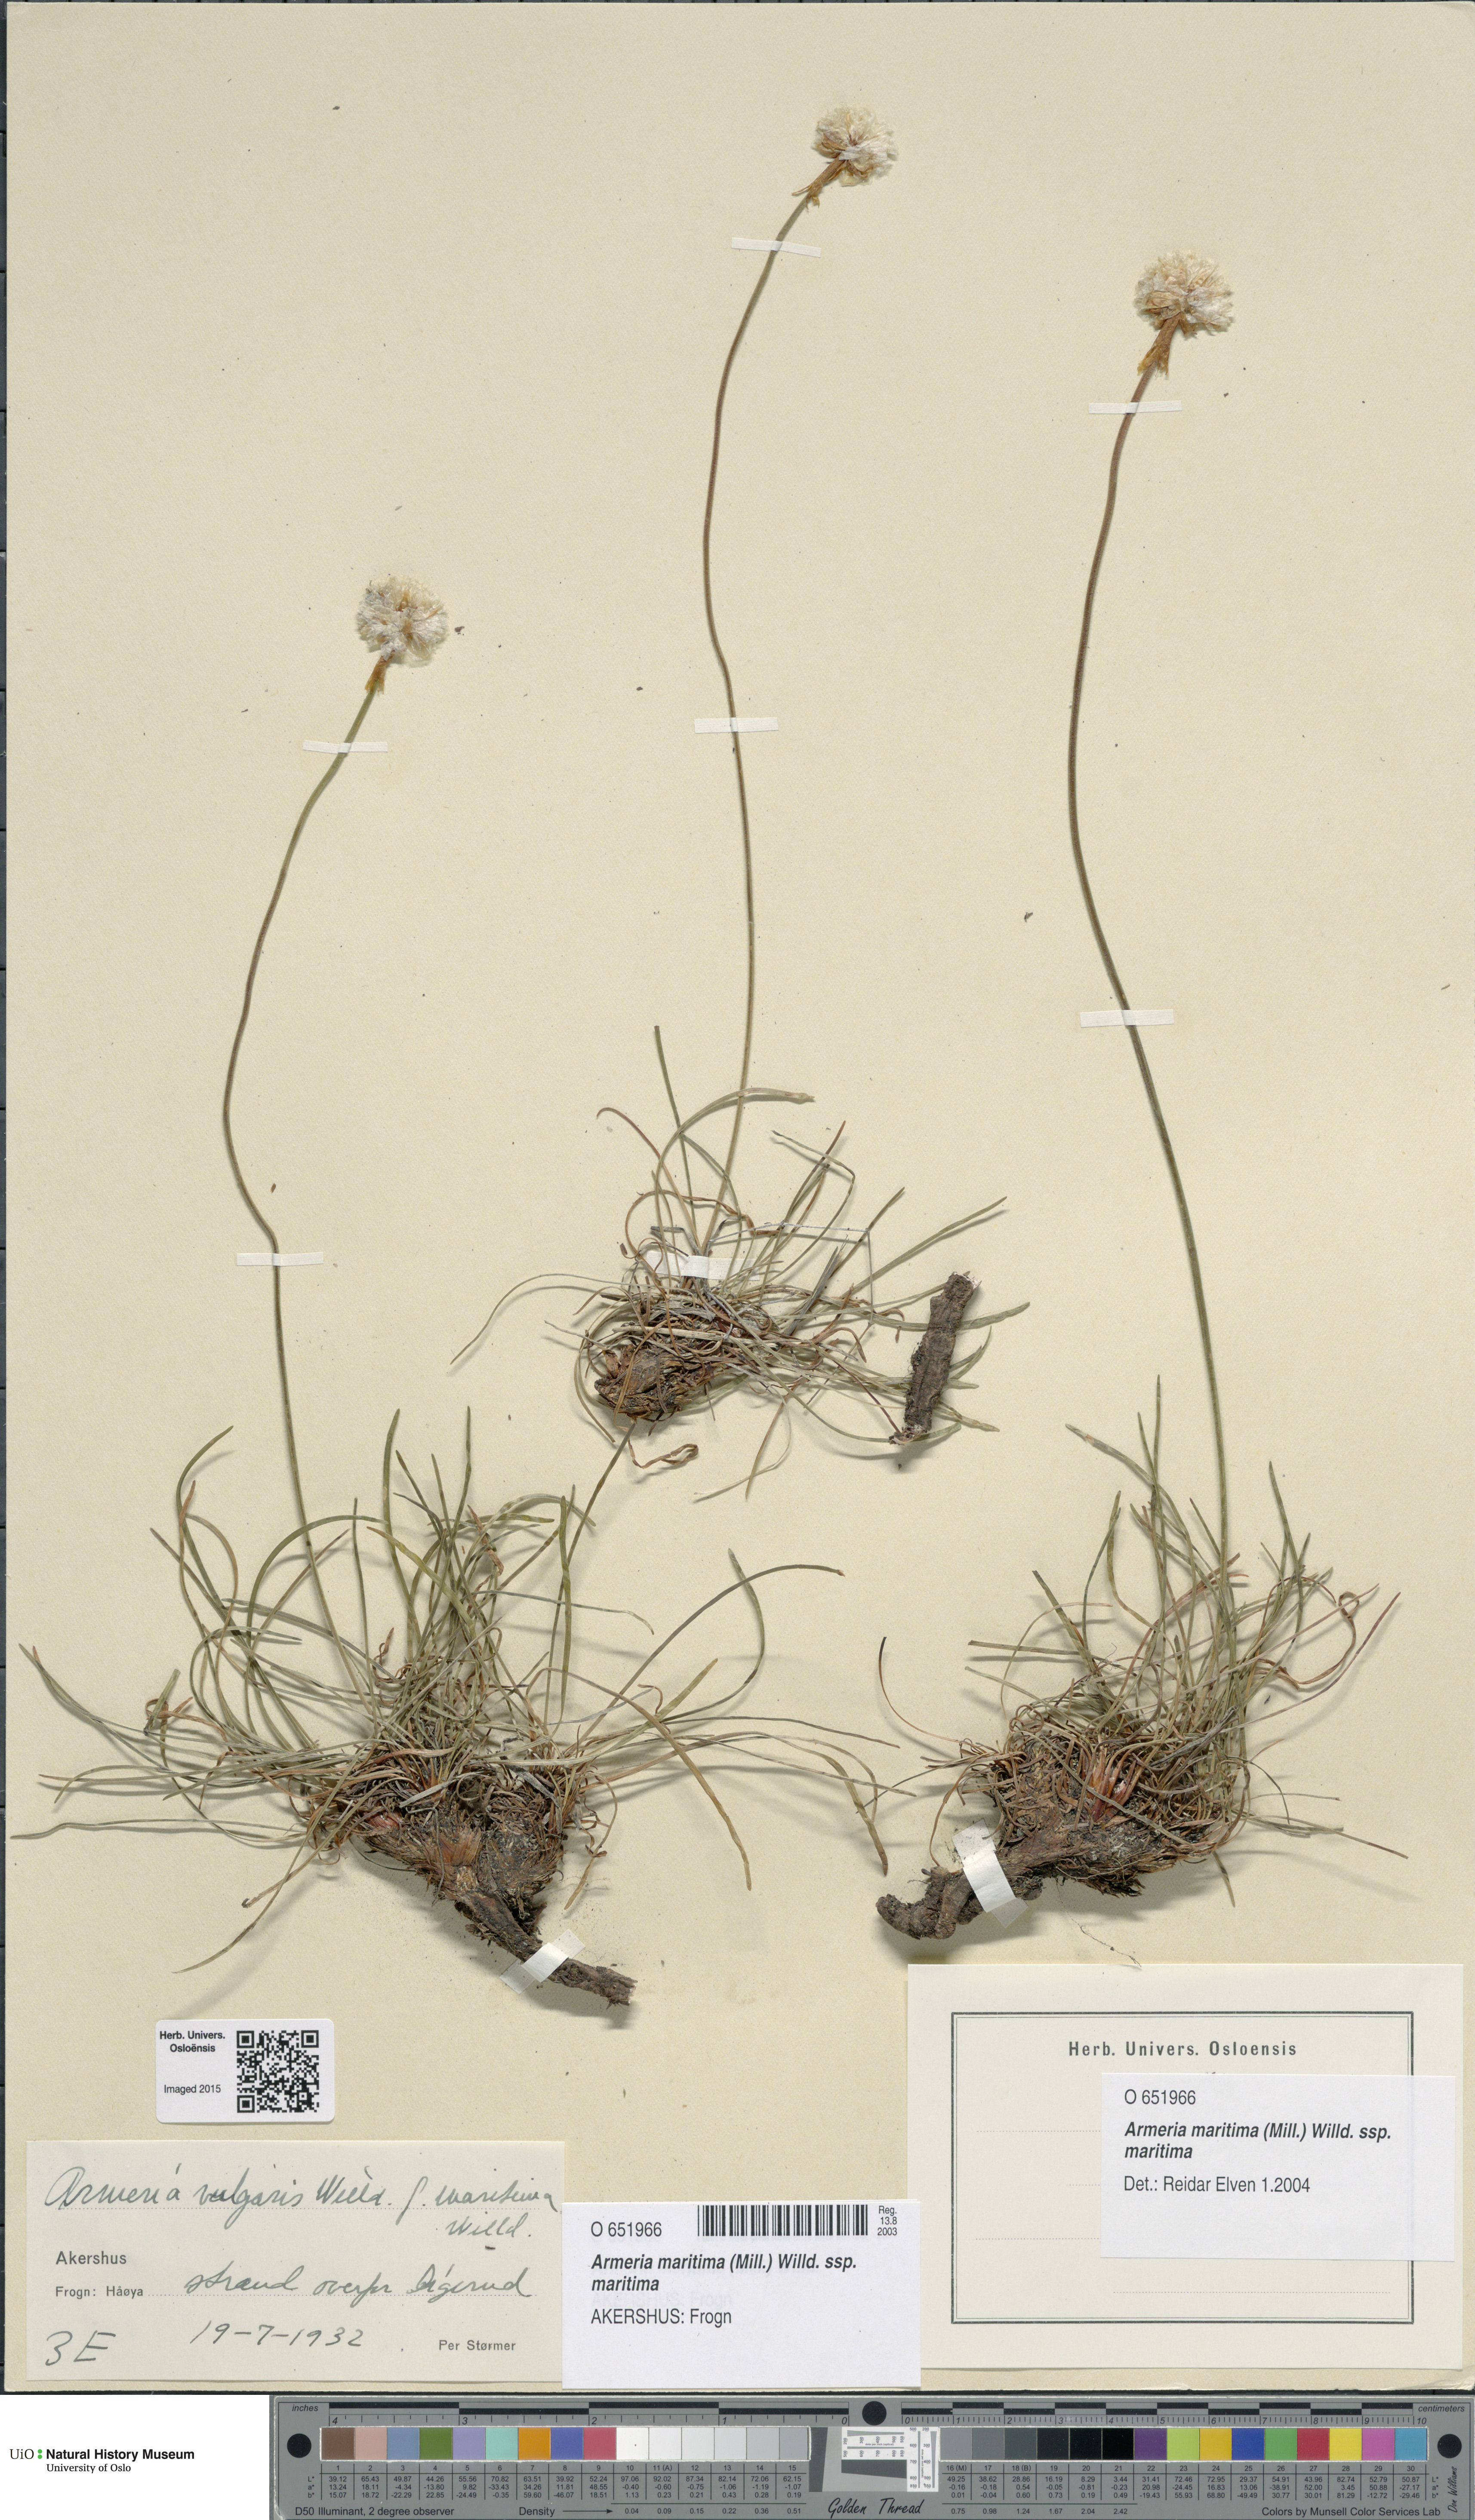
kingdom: Plantae
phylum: Tracheophyta
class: Magnoliopsida
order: Caryophyllales
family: Plumbaginaceae
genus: Armeria
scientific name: Armeria maritima
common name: Thrift
